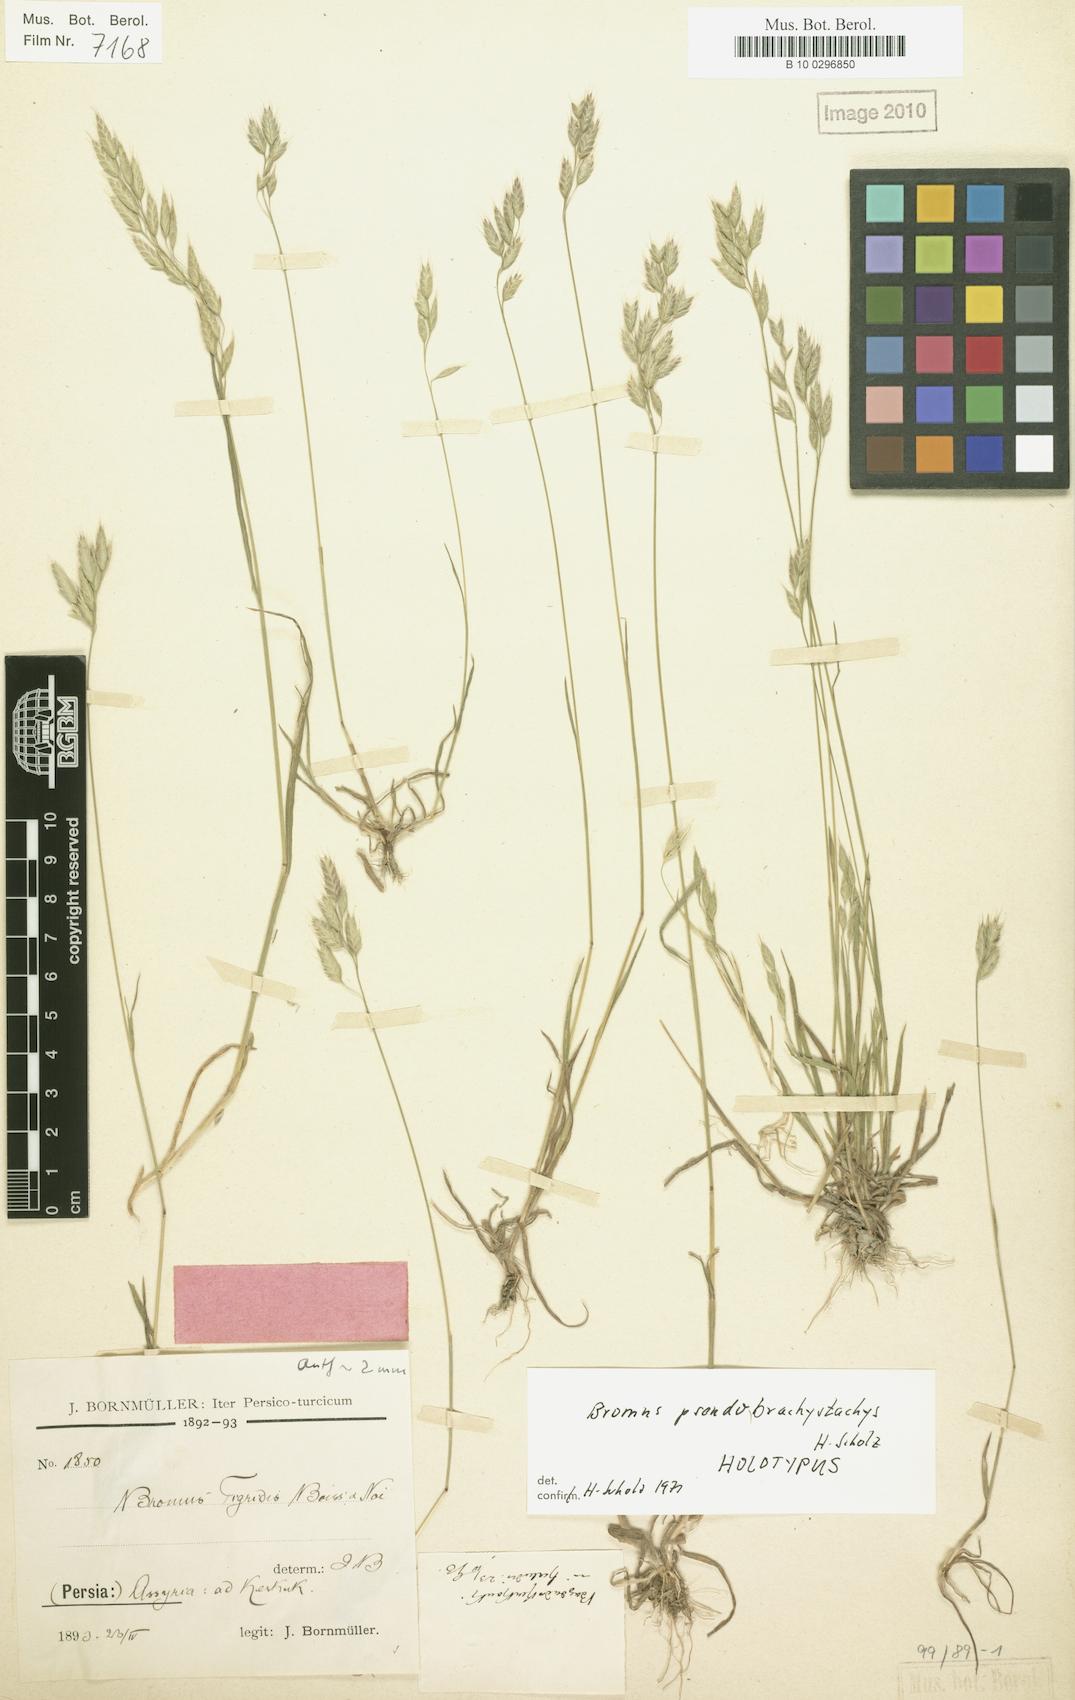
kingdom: Plantae
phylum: Tracheophyta
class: Liliopsida
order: Poales
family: Poaceae
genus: Bromus
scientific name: Bromus pseudobrachystachys
